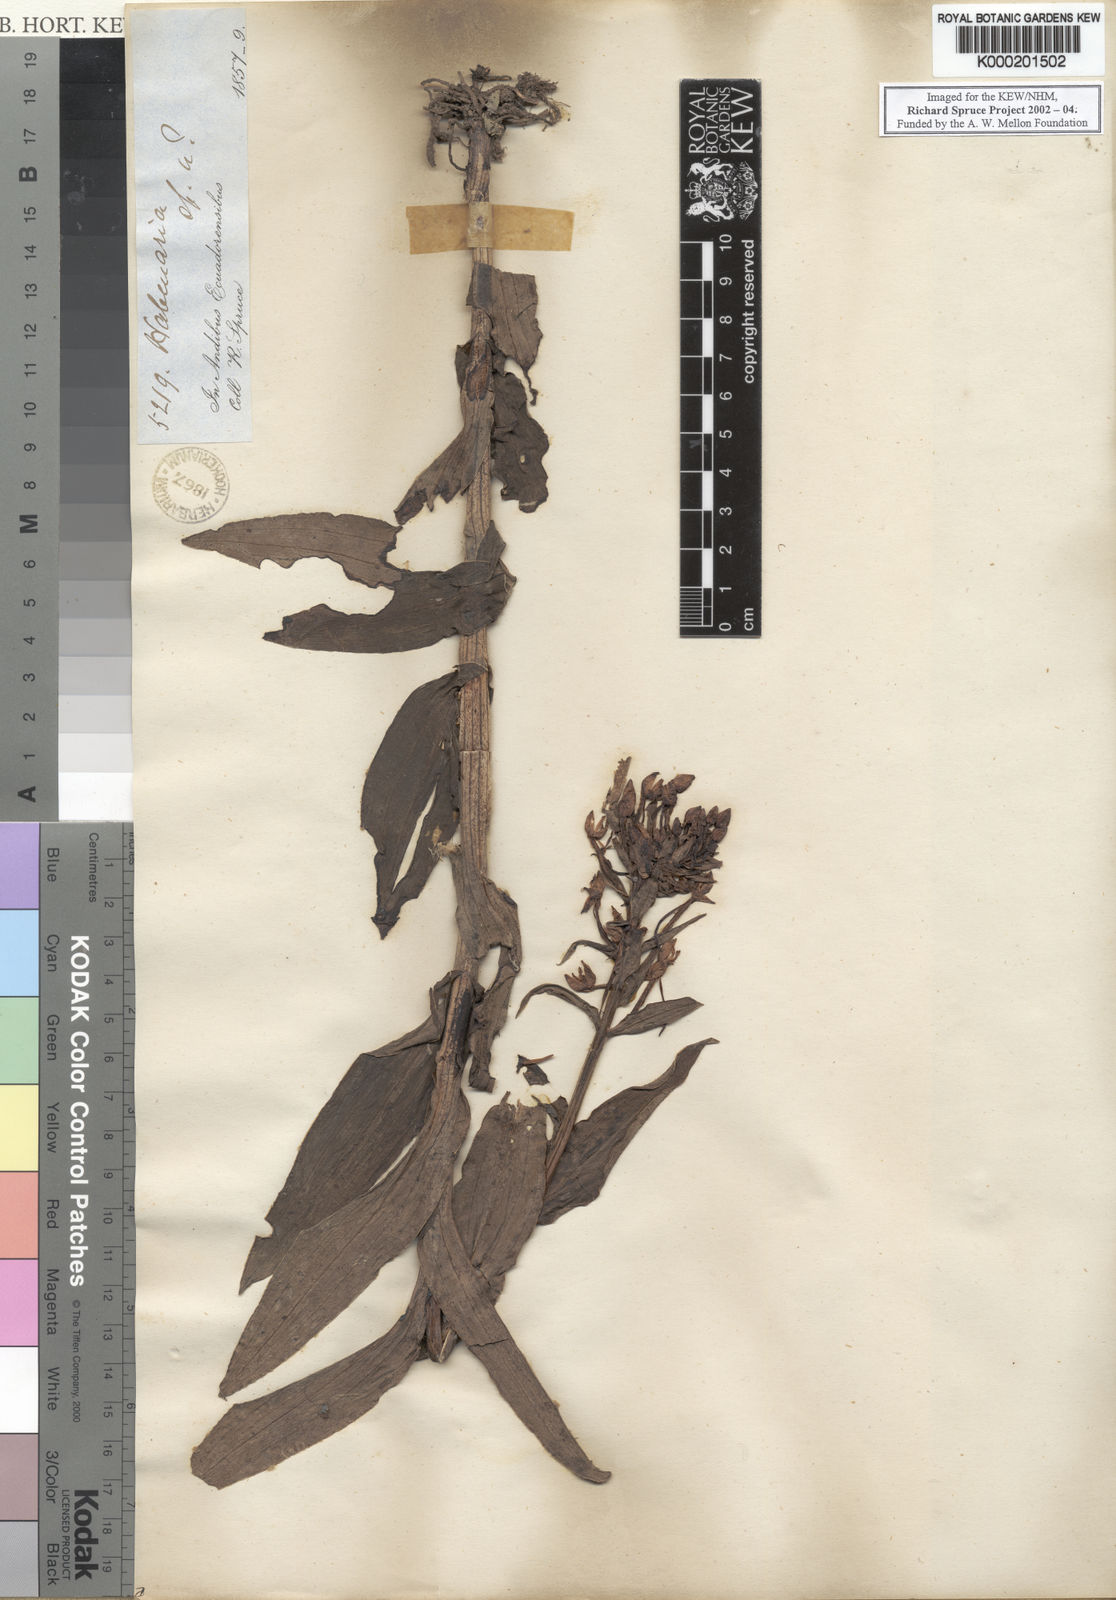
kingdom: Plantae
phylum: Tracheophyta
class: Liliopsida
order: Asparagales
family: Orchidaceae
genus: Habenaria
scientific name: Habenaria maculosa
